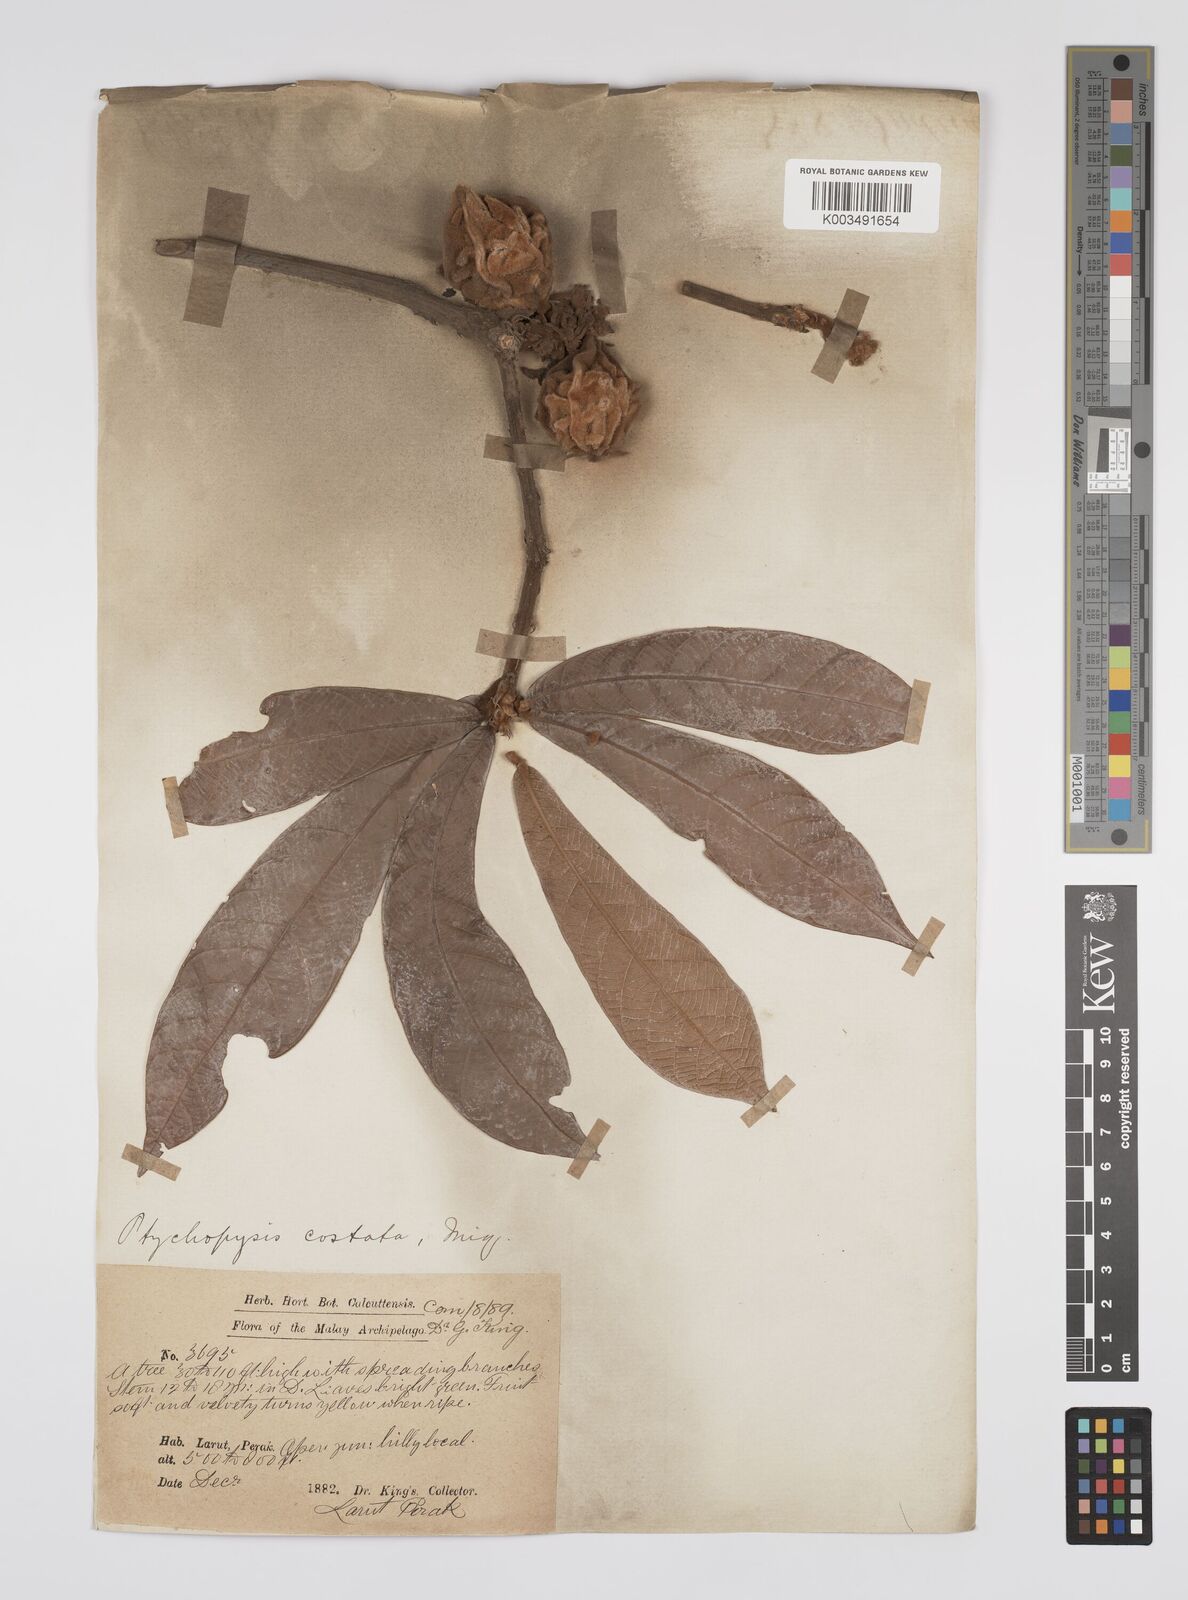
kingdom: Plantae
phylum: Tracheophyta
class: Magnoliopsida
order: Malpighiales
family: Euphorbiaceae
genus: Ptychopyxis
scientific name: Ptychopyxis costata
